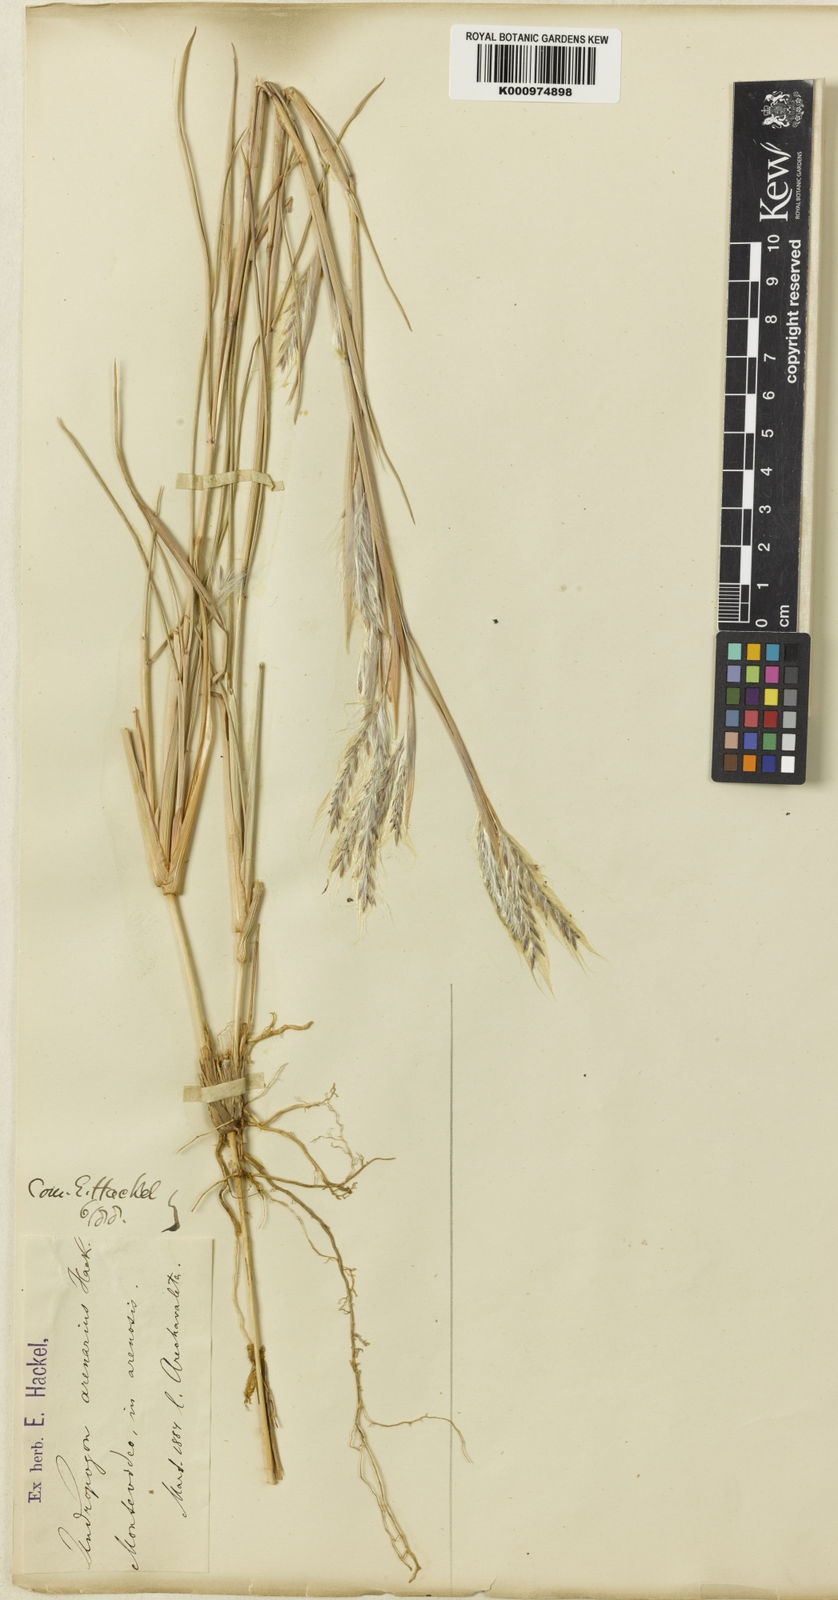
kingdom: Plantae
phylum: Tracheophyta
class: Liliopsida
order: Poales
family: Poaceae
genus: Andropogon
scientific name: Andropogon arenarius
